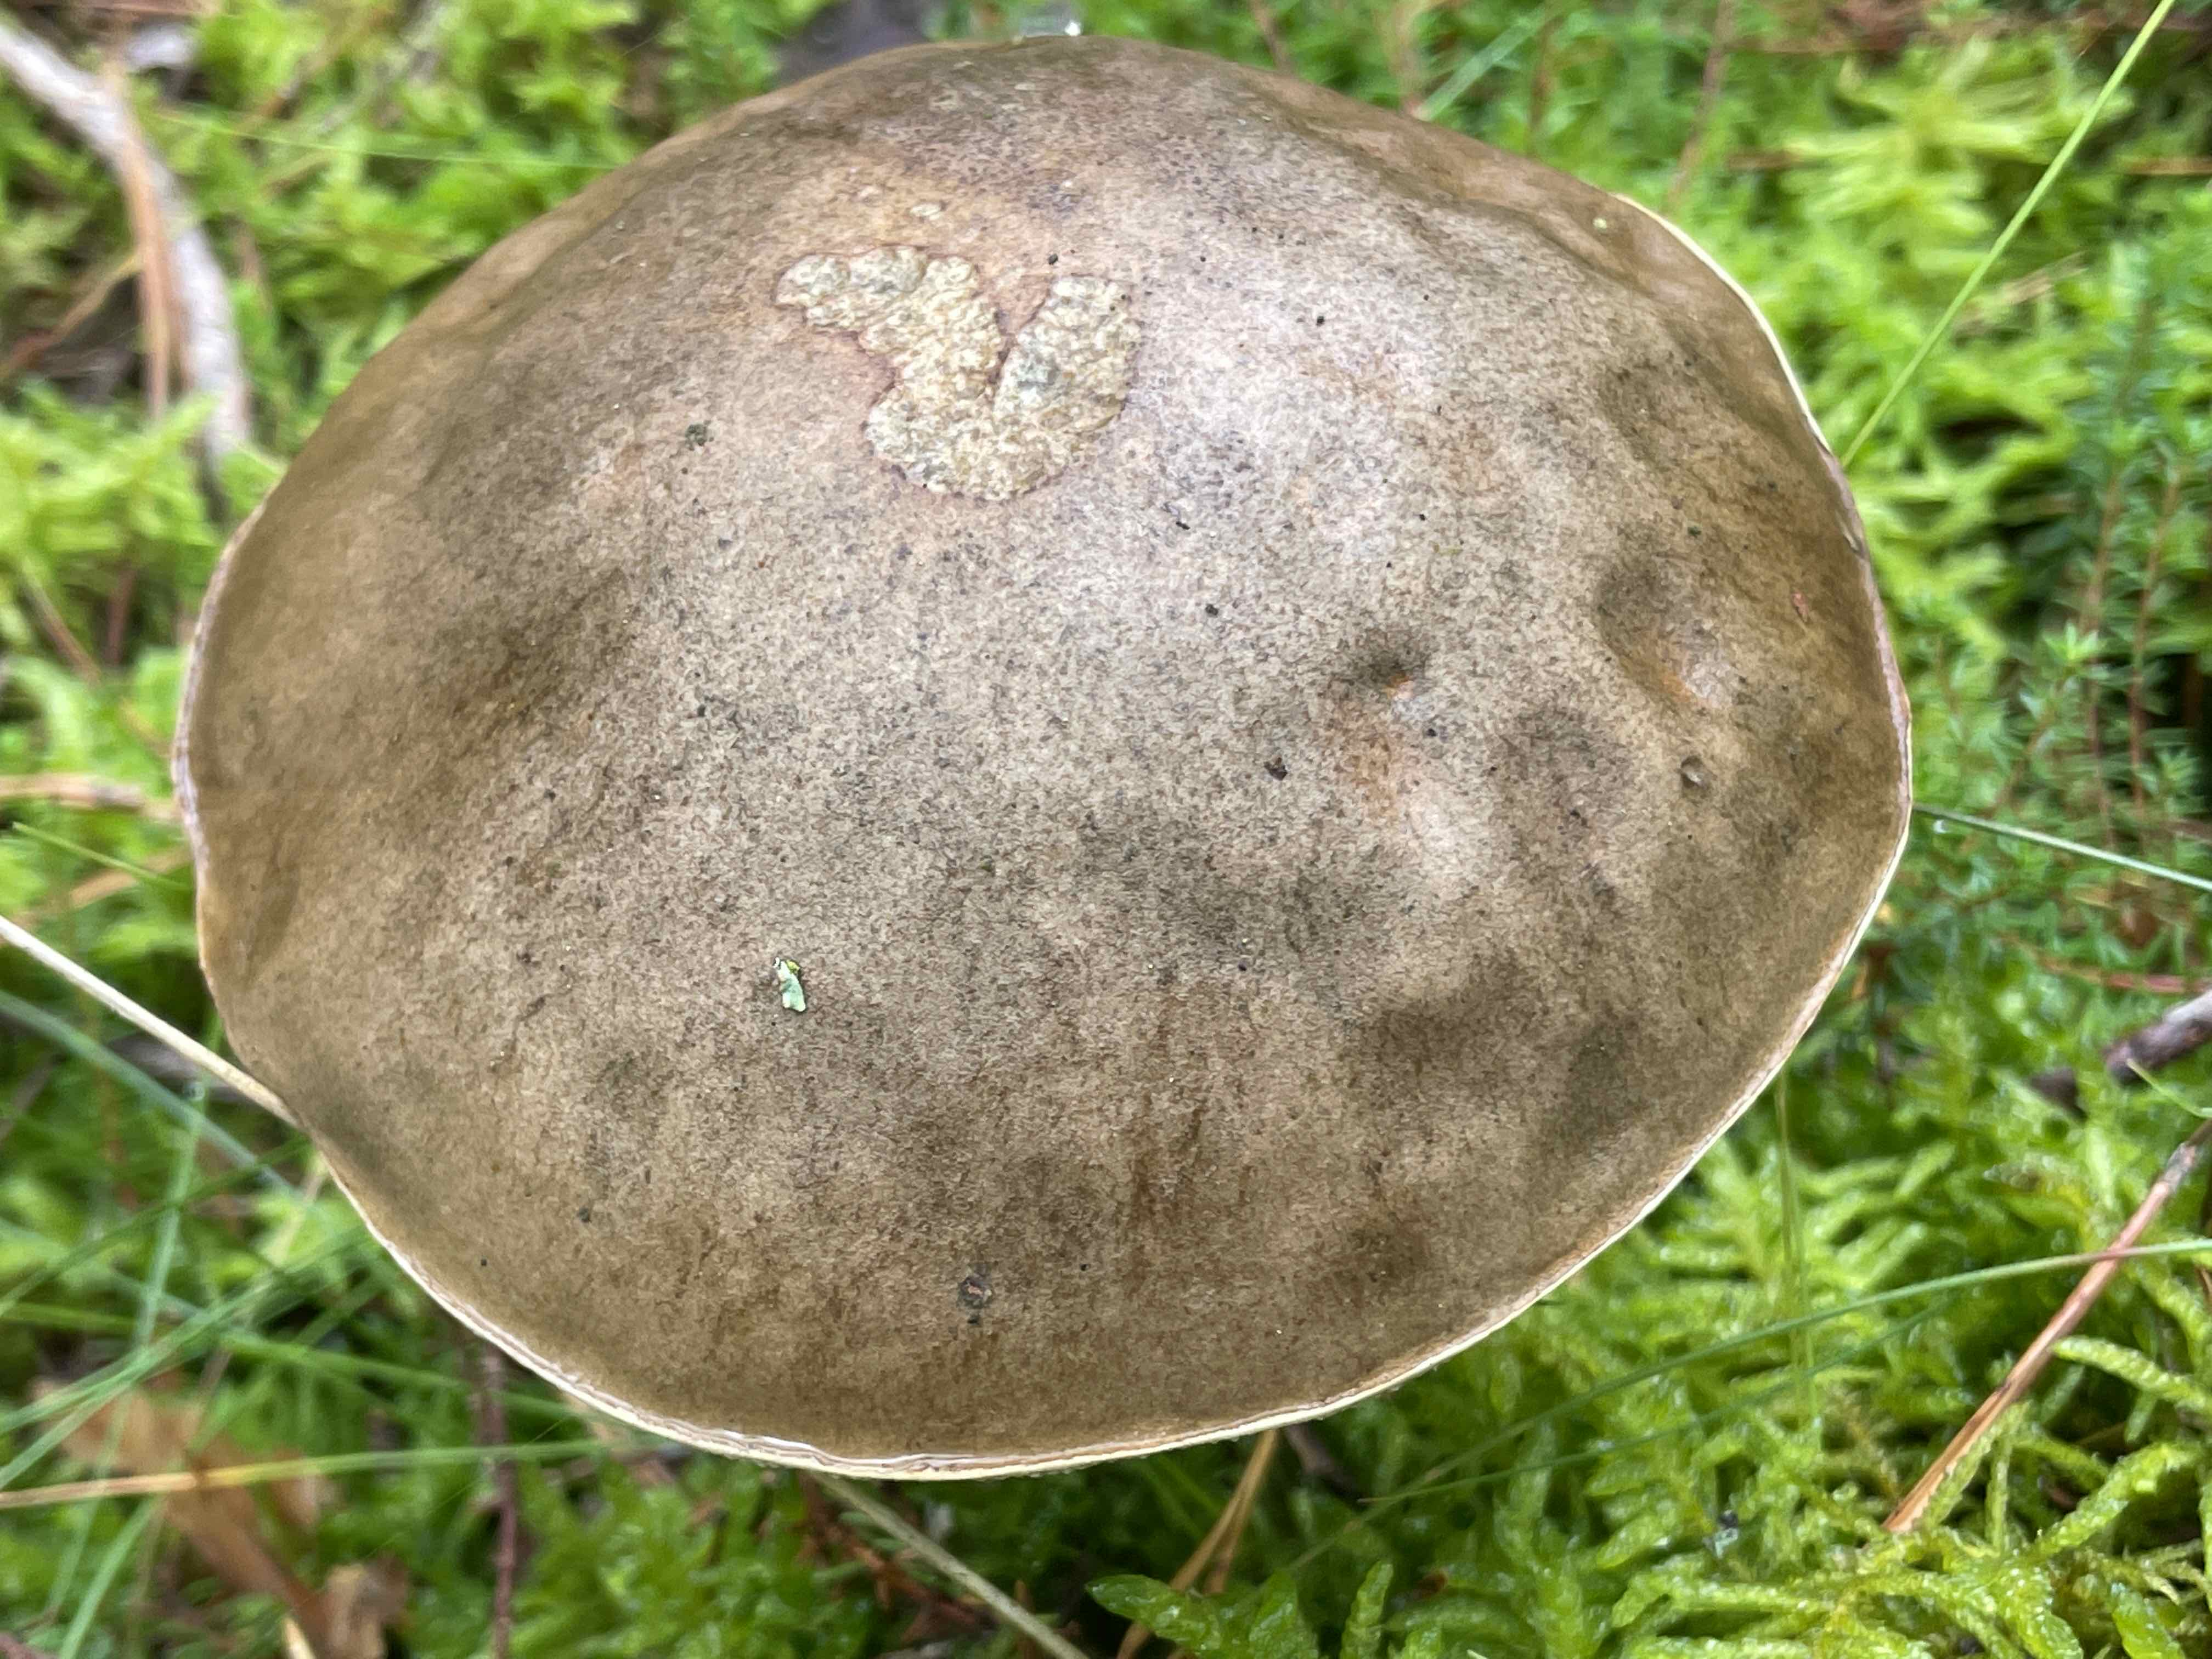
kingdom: Fungi
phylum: Basidiomycota
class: Agaricomycetes
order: Boletales
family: Boletaceae
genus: Leccinum
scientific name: Leccinum
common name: skælrørhat
